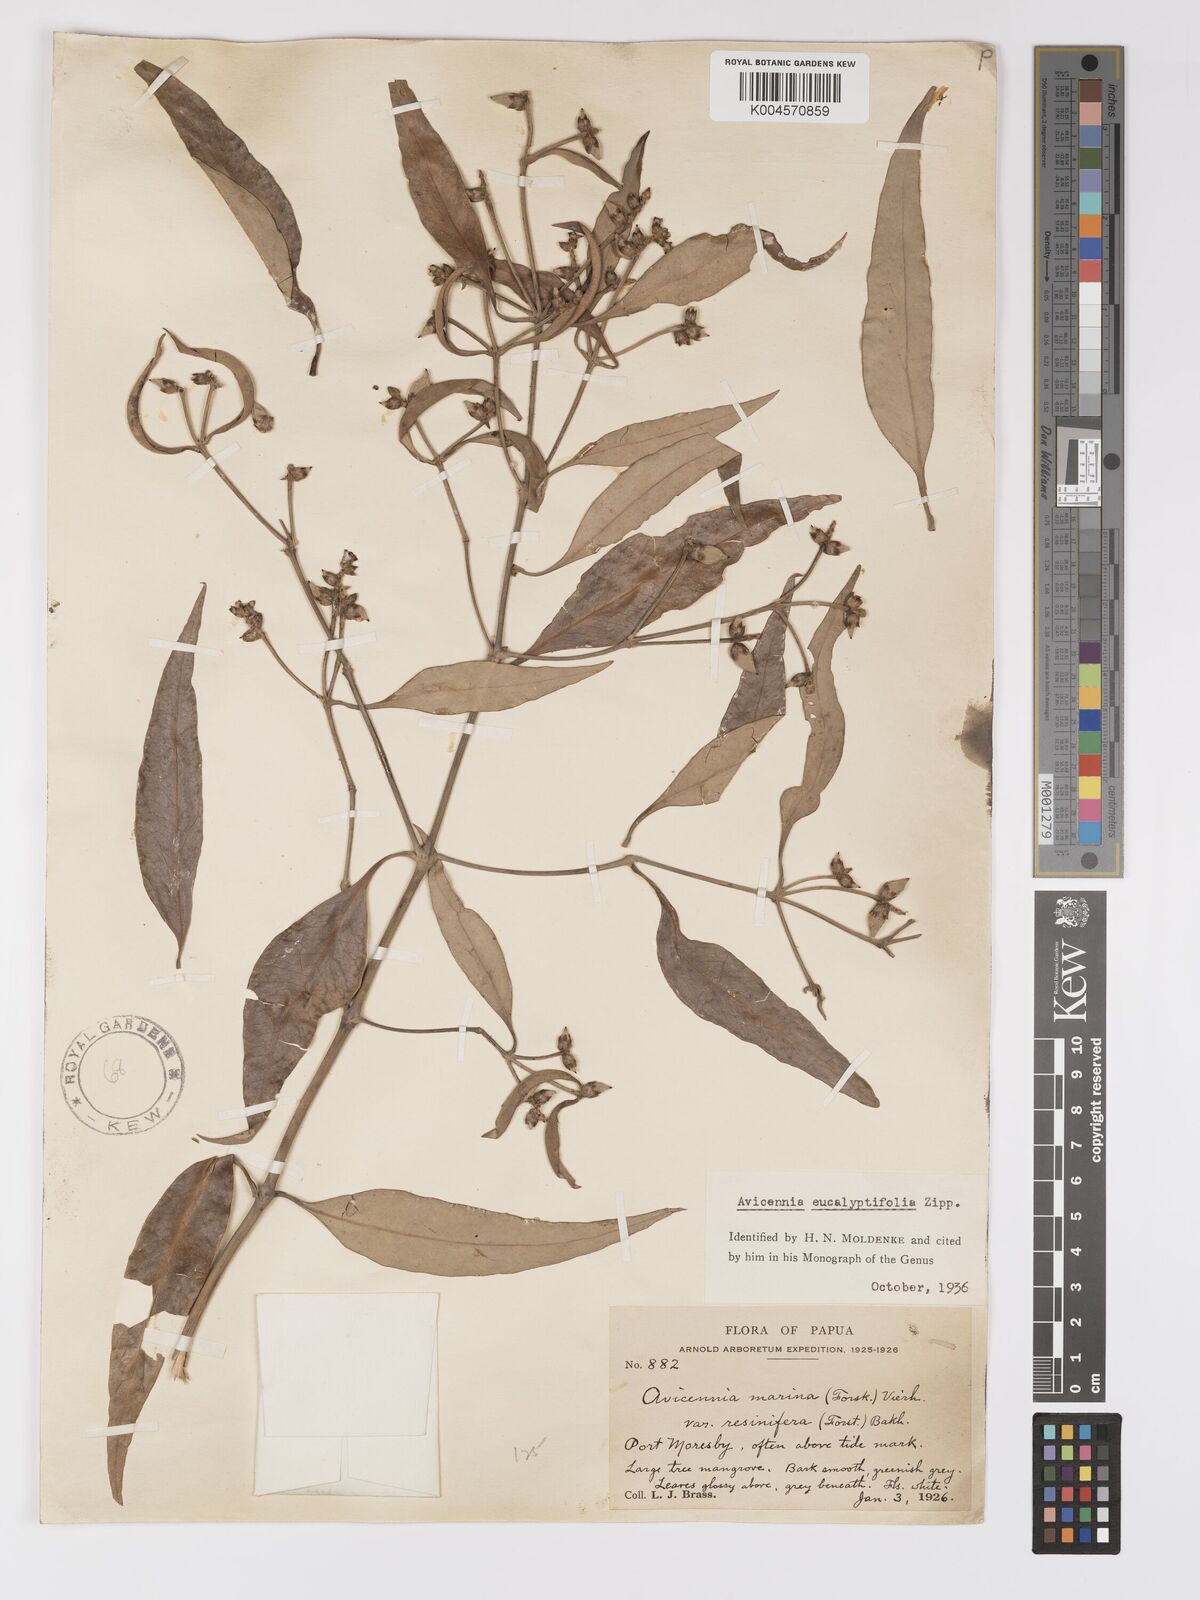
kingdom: Plantae
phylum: Tracheophyta
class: Magnoliopsida
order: Lamiales
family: Acanthaceae
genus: Avicennia
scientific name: Avicennia marina
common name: Gray mangrove
